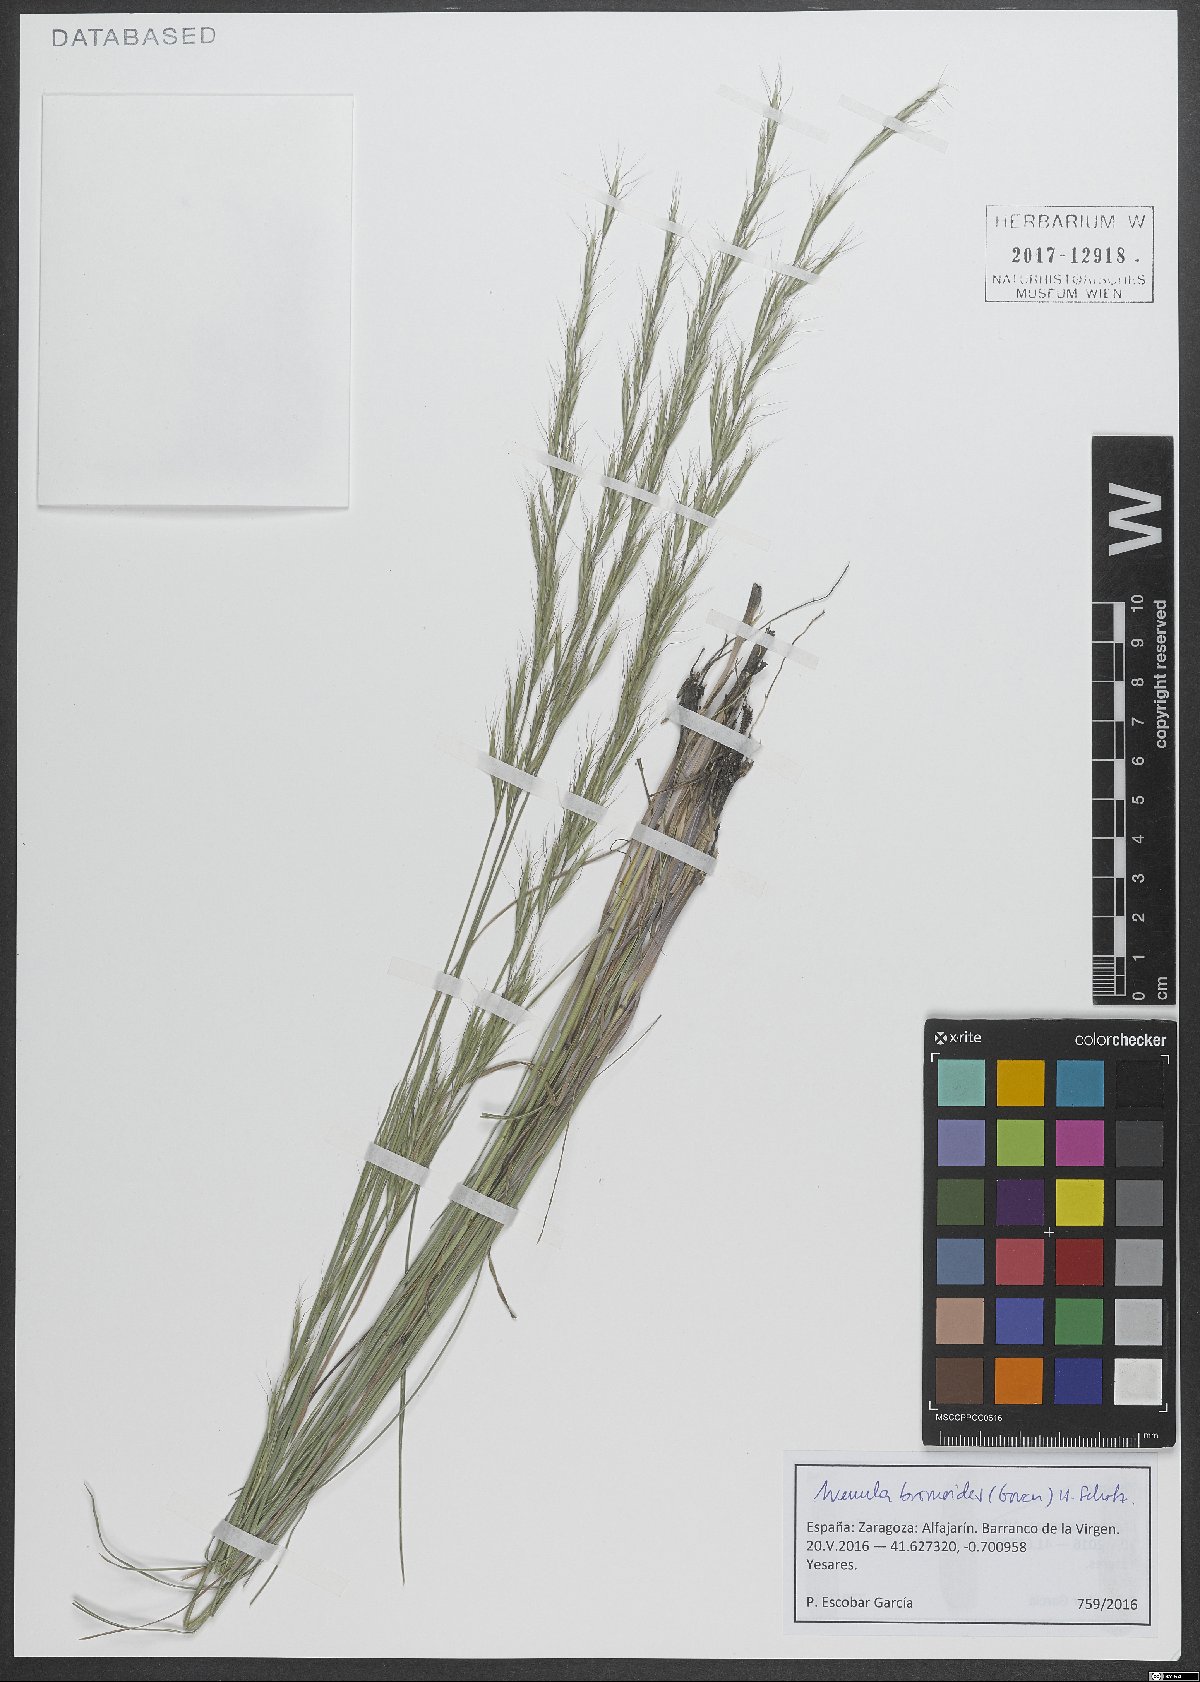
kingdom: Plantae
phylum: Tracheophyta
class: Liliopsida
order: Poales
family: Poaceae
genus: Helictochloa
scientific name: Helictochloa bromoides
